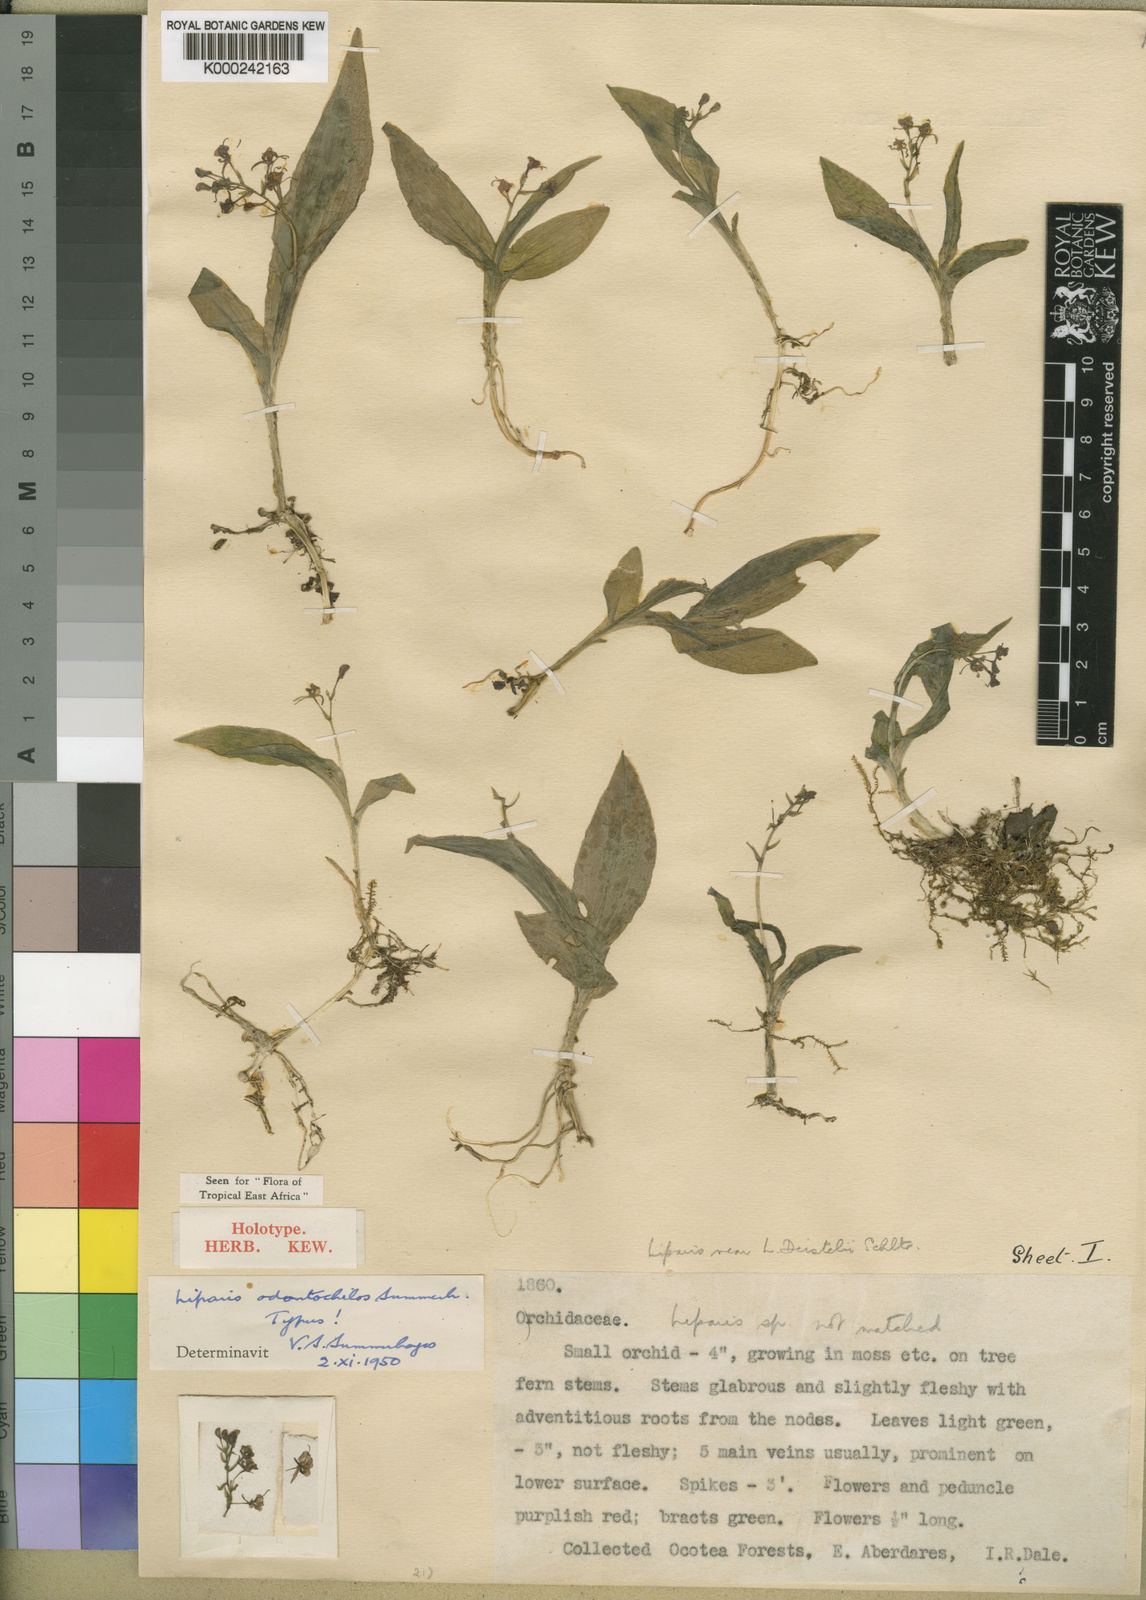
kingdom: Plantae
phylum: Tracheophyta
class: Liliopsida
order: Asparagales
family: Orchidaceae
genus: Liparis
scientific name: Liparis deistelii
